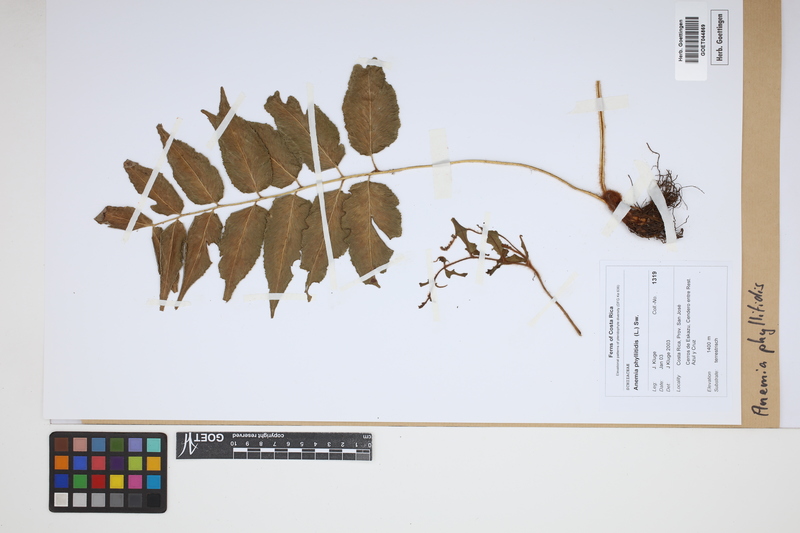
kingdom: Plantae
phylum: Tracheophyta
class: Polypodiopsida
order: Schizaeales
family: Anemiaceae
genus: Anemia
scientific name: Anemia phyllitidis
